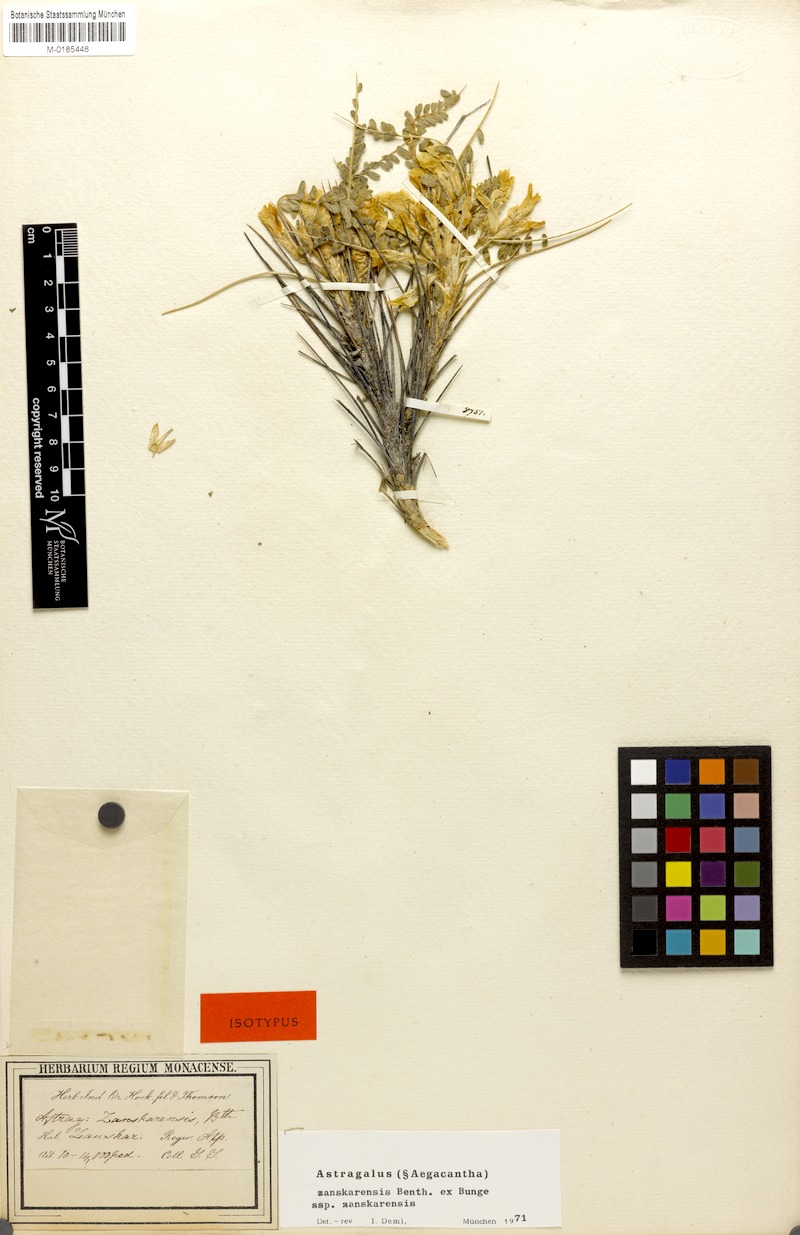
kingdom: Plantae
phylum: Tracheophyta
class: Magnoliopsida
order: Fabales
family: Fabaceae
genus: Astragalus
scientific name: Astragalus zanskarensis
